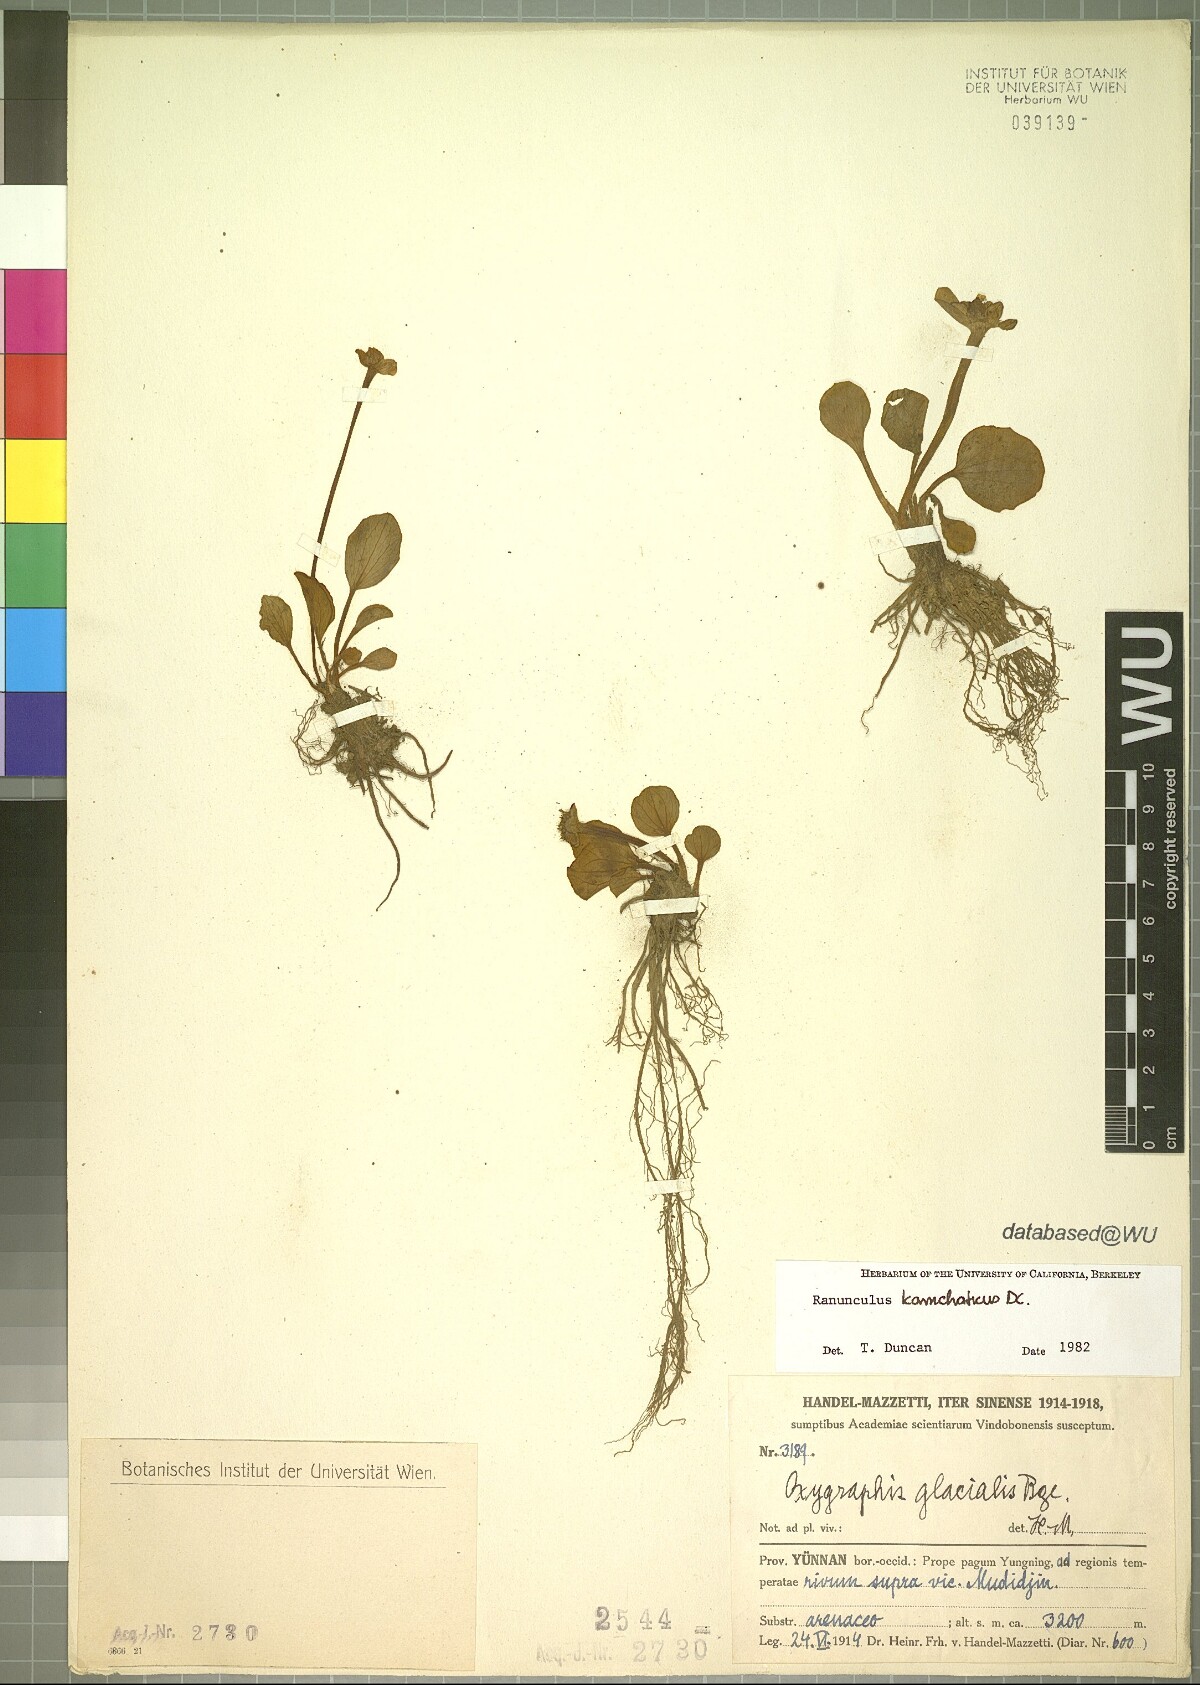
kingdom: Plantae
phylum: Tracheophyta
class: Magnoliopsida
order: Ranunculales
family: Ranunculaceae
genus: Oxygraphis
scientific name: Oxygraphis kamchatica
